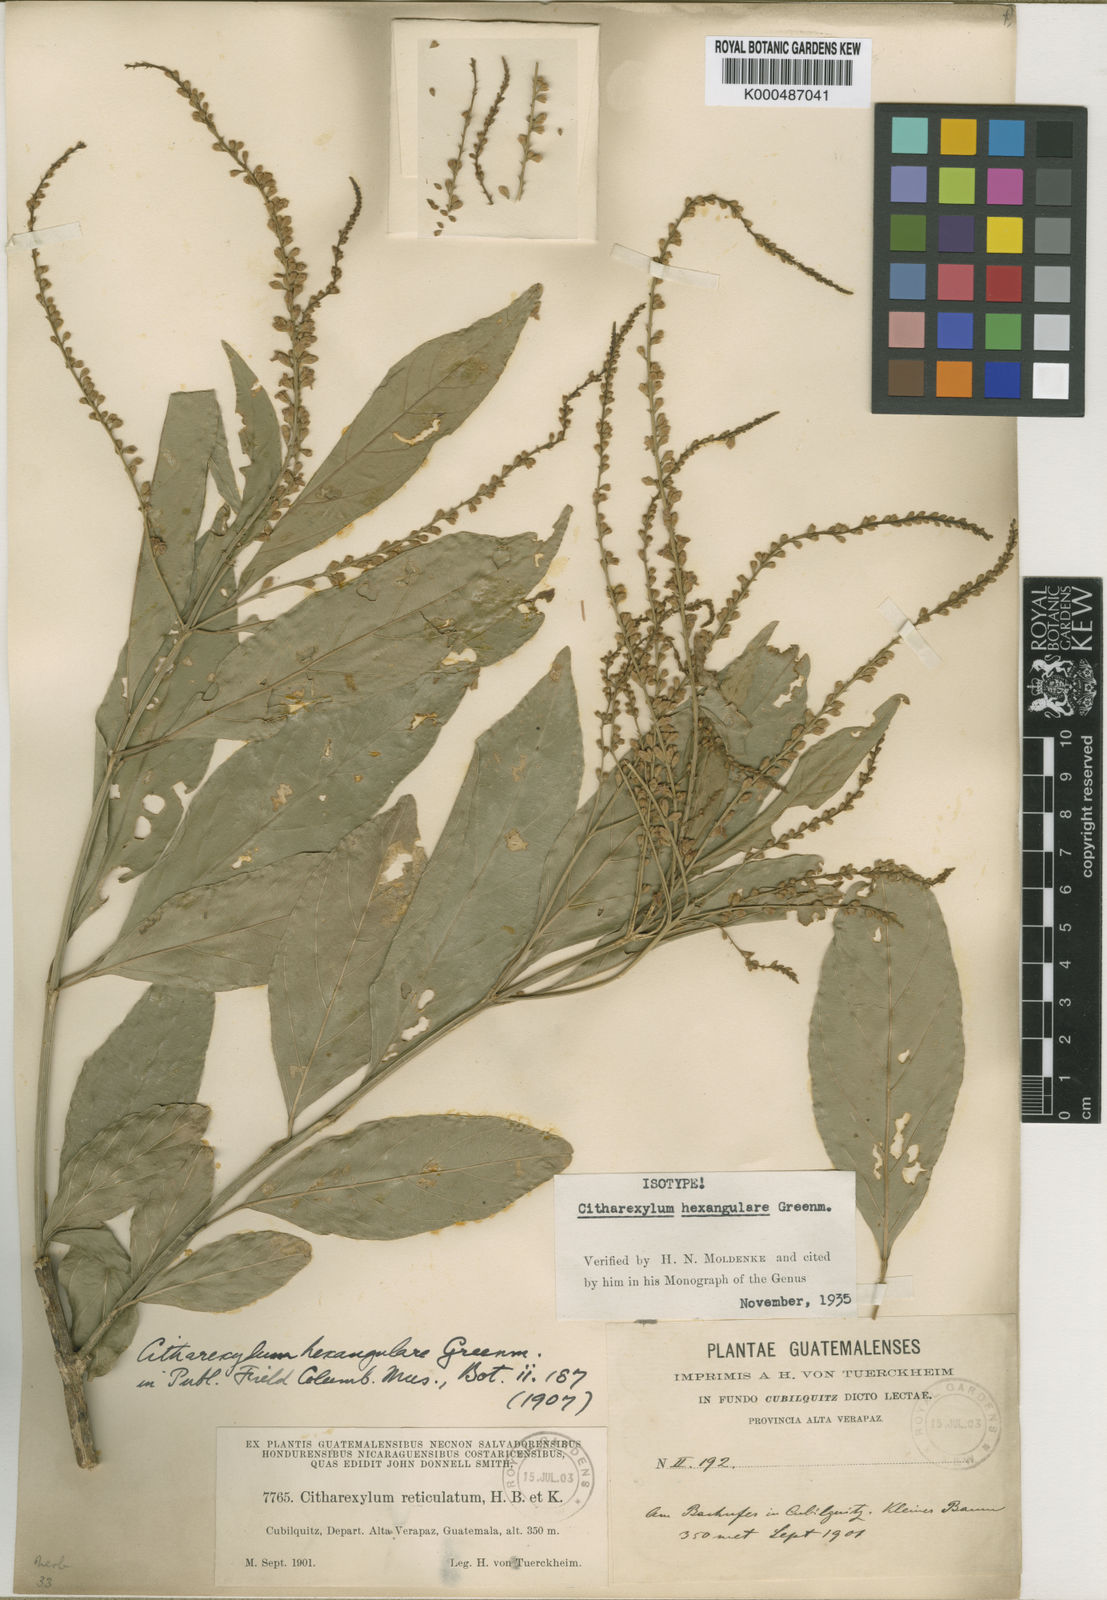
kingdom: Plantae
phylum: Tracheophyta
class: Magnoliopsida
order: Lamiales
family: Verbenaceae
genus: Citharexylum
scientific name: Citharexylum hexangulare
